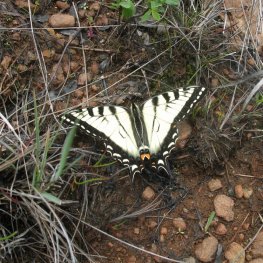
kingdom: Animalia
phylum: Arthropoda
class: Insecta
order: Lepidoptera
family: Papilionidae
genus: Pterourus
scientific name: Pterourus canadensis
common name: Canadian Tiger Swallowtail
